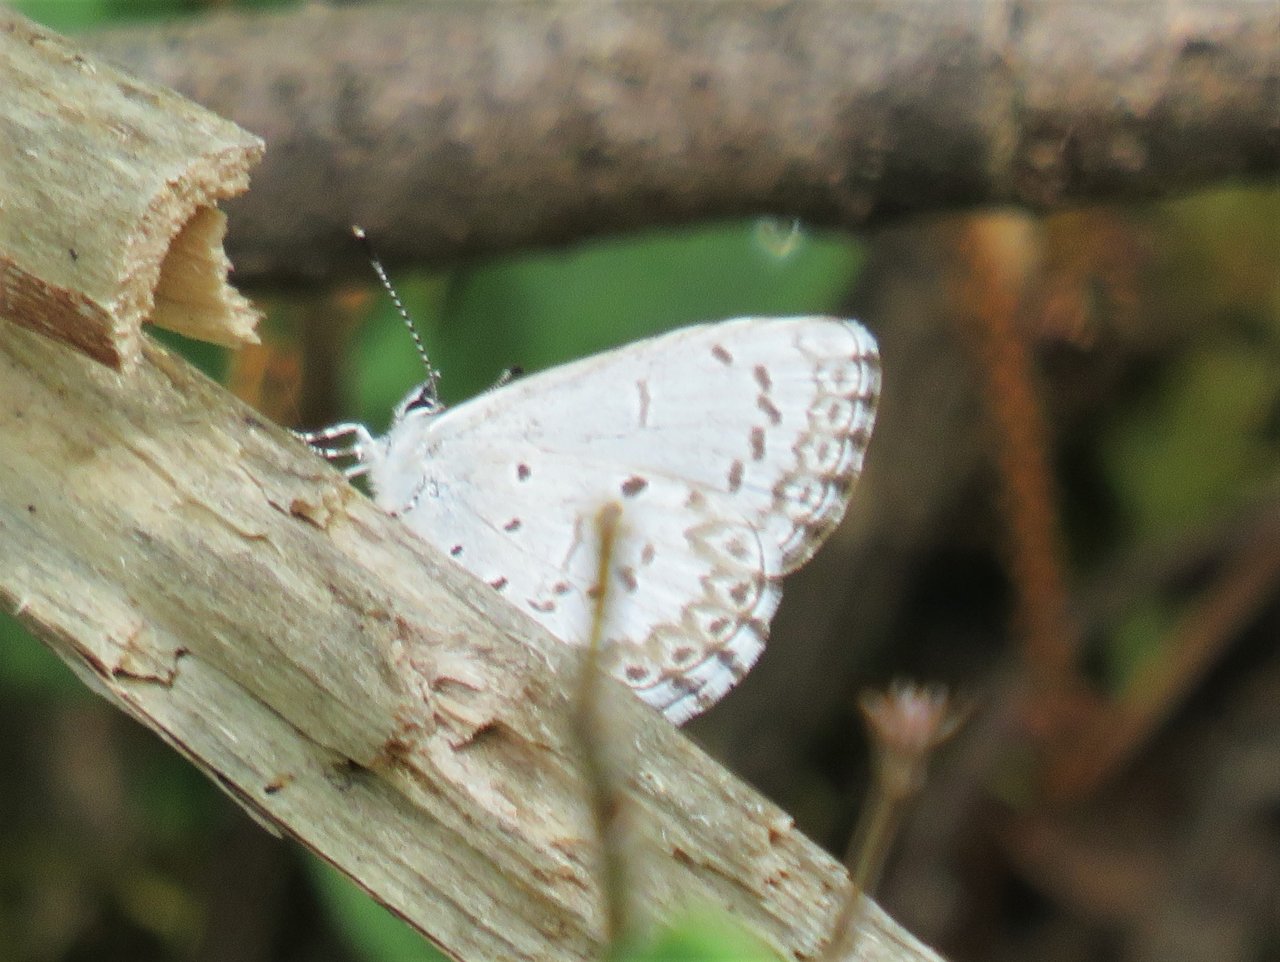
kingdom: Animalia
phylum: Arthropoda
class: Insecta
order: Lepidoptera
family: Lycaenidae
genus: Celastrina
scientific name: Celastrina lucia
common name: Northern Spring Azure
